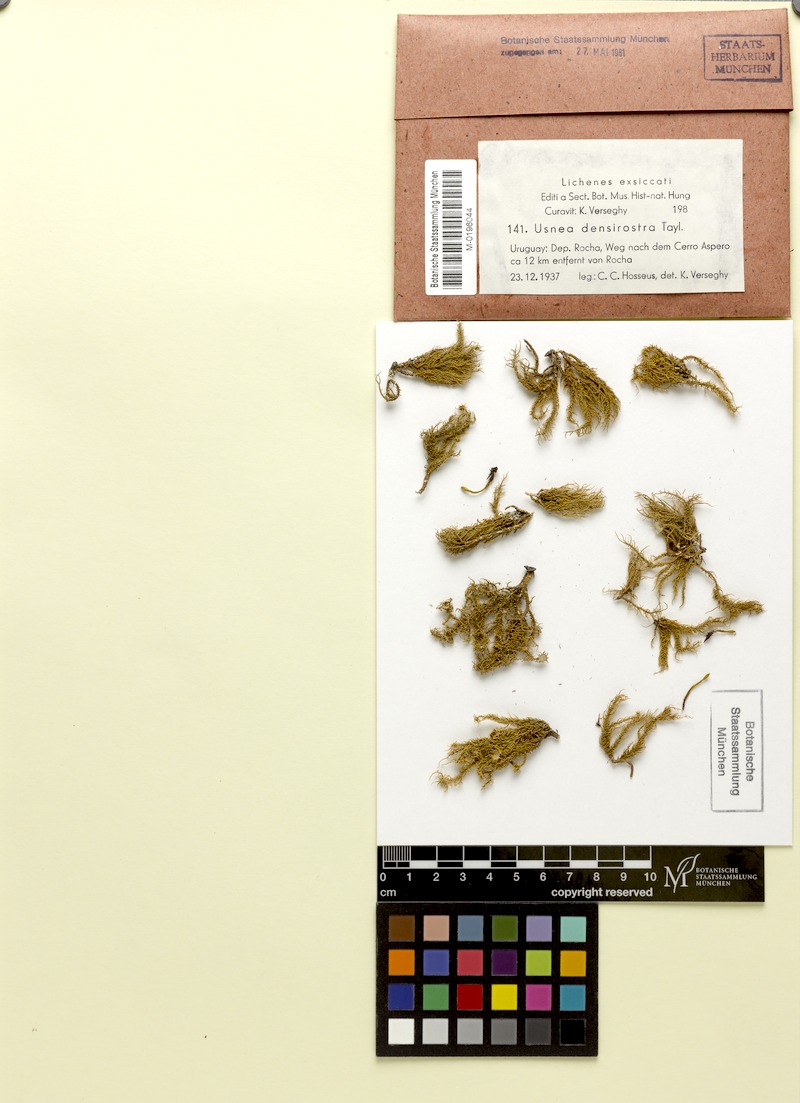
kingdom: Fungi
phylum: Ascomycota
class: Lecanoromycetes
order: Lecanorales
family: Parmeliaceae
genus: Usnea
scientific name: Usnea densirostra
